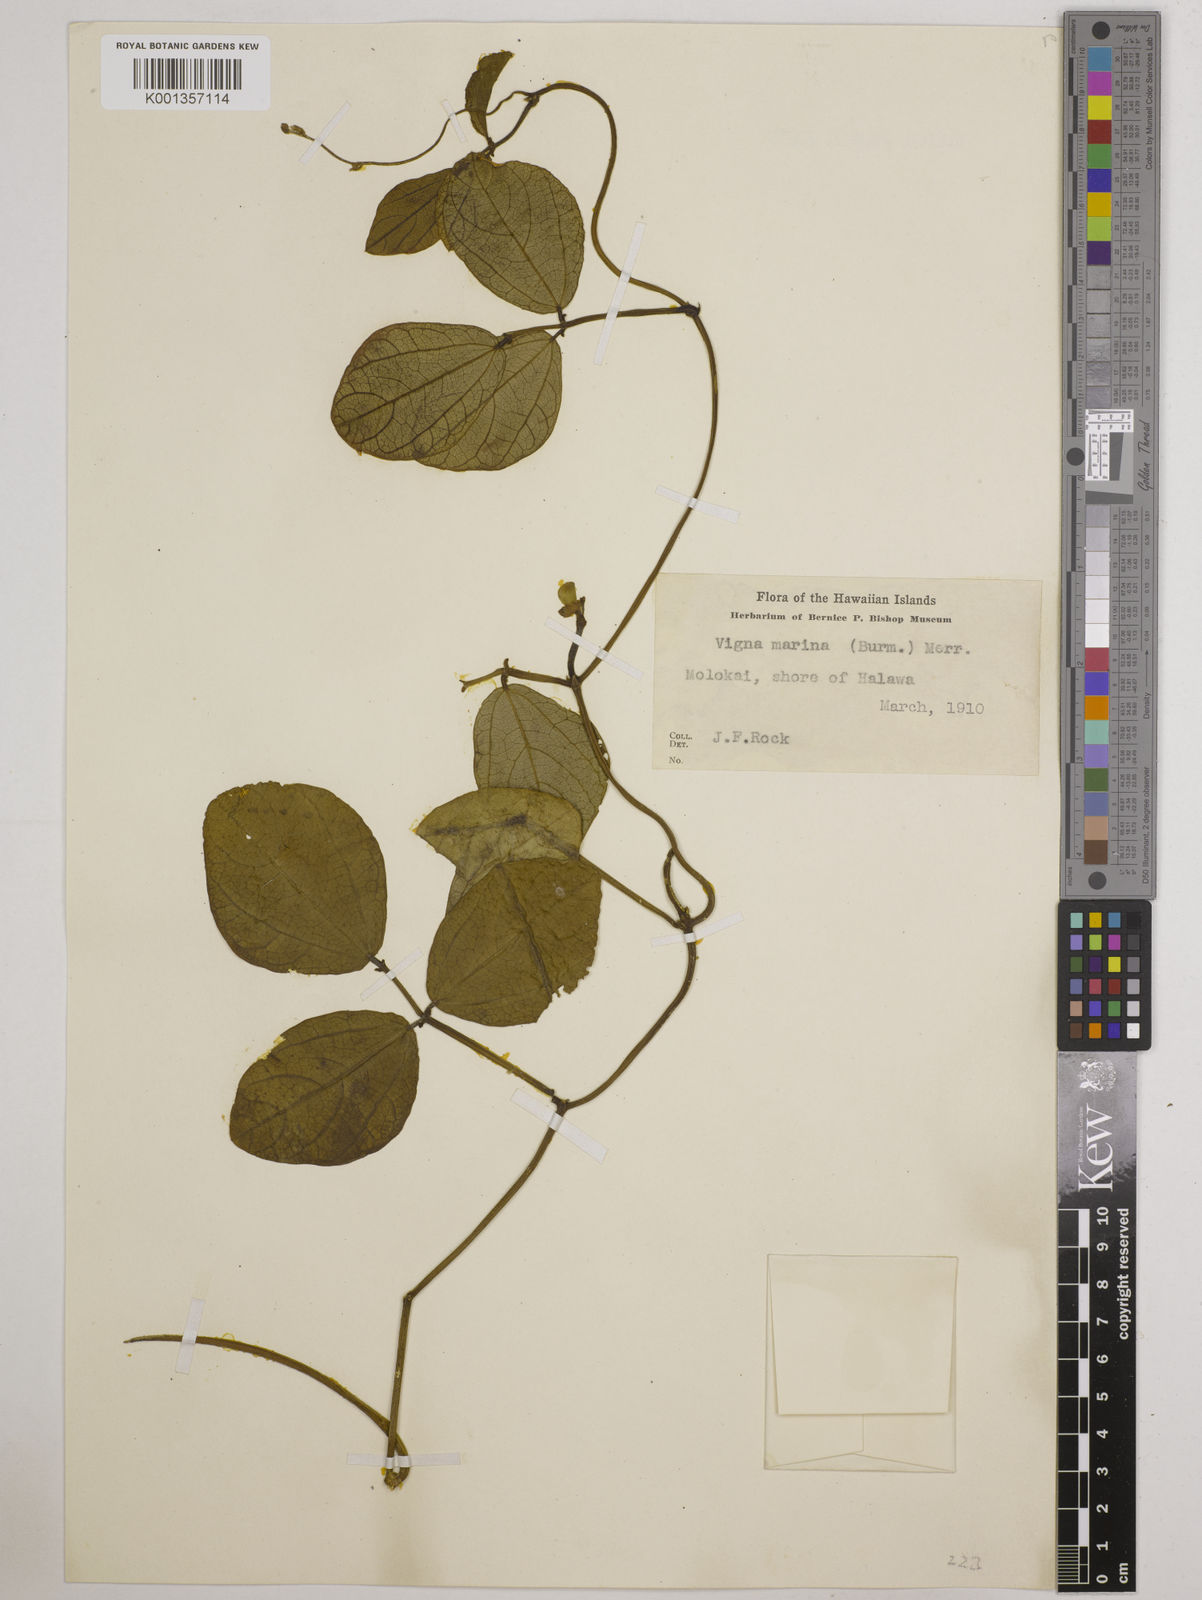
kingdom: Plantae
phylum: Tracheophyta
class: Magnoliopsida
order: Fabales
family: Fabaceae
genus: Vigna
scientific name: Vigna marina
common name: Dune-bean
